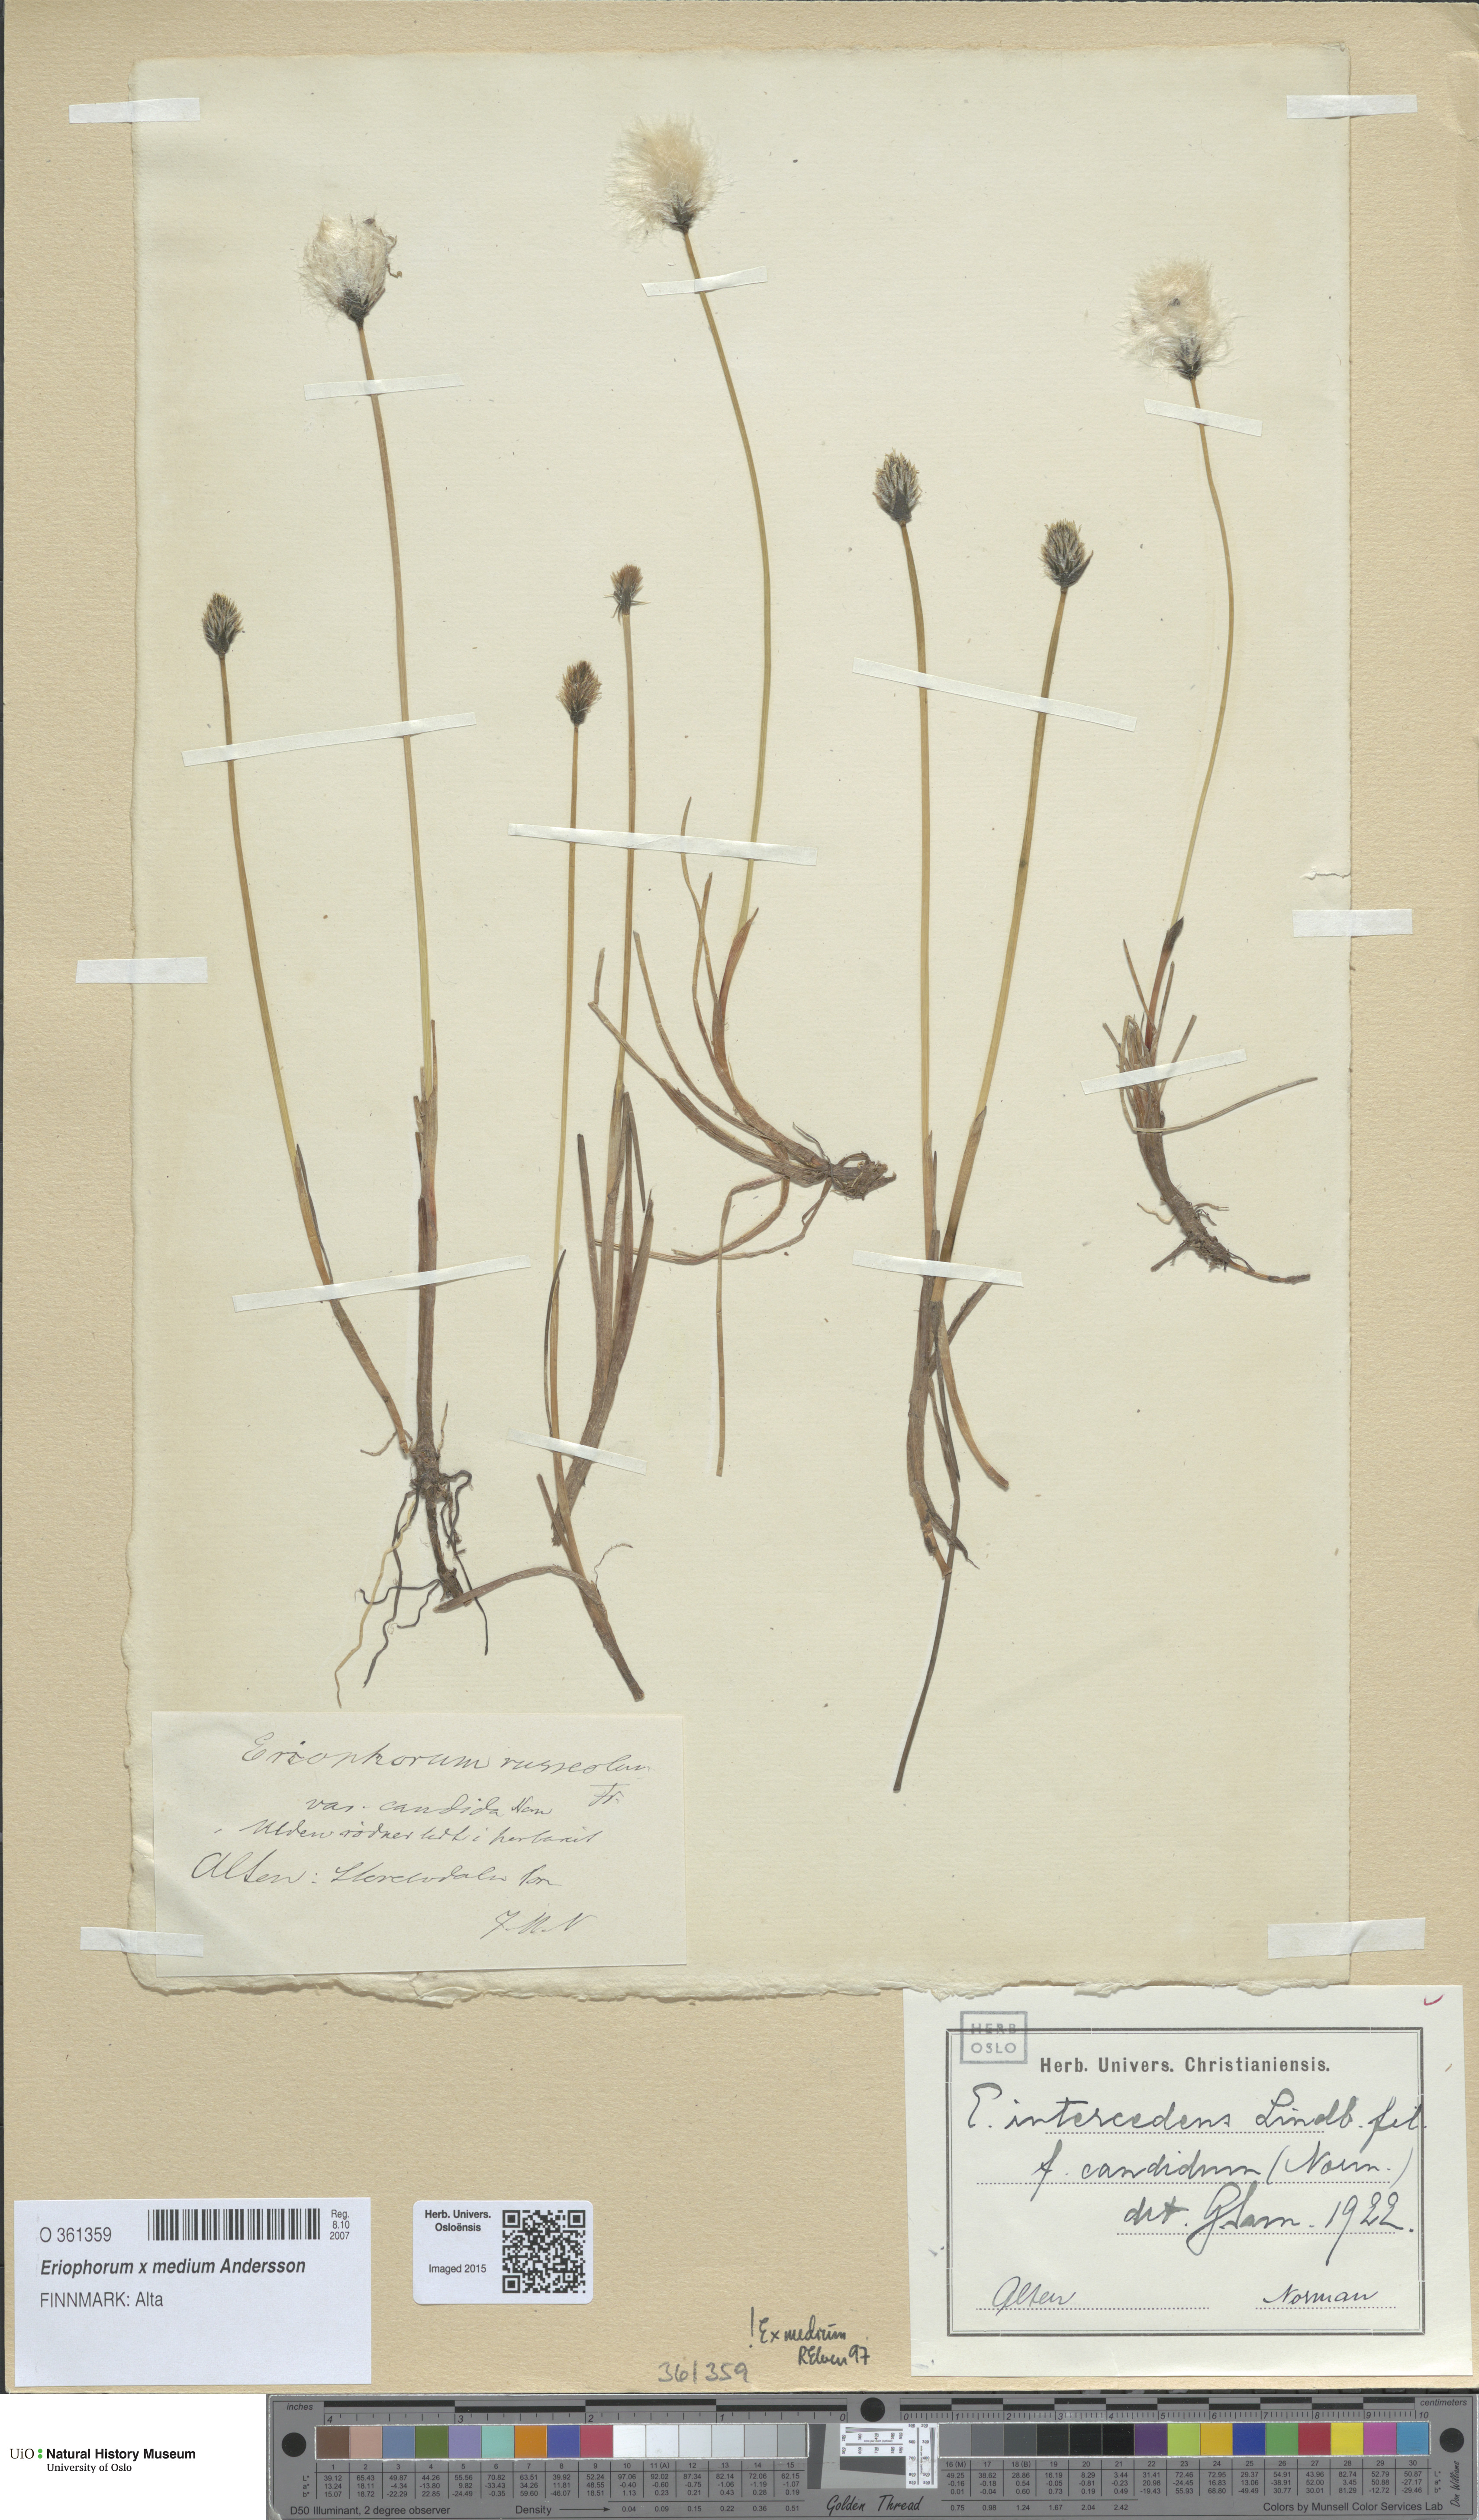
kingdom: Plantae
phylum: Tracheophyta
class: Liliopsida
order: Poales
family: Cyperaceae
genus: Eriophorum
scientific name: Eriophorum medium
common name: Intermediate cottongrass
